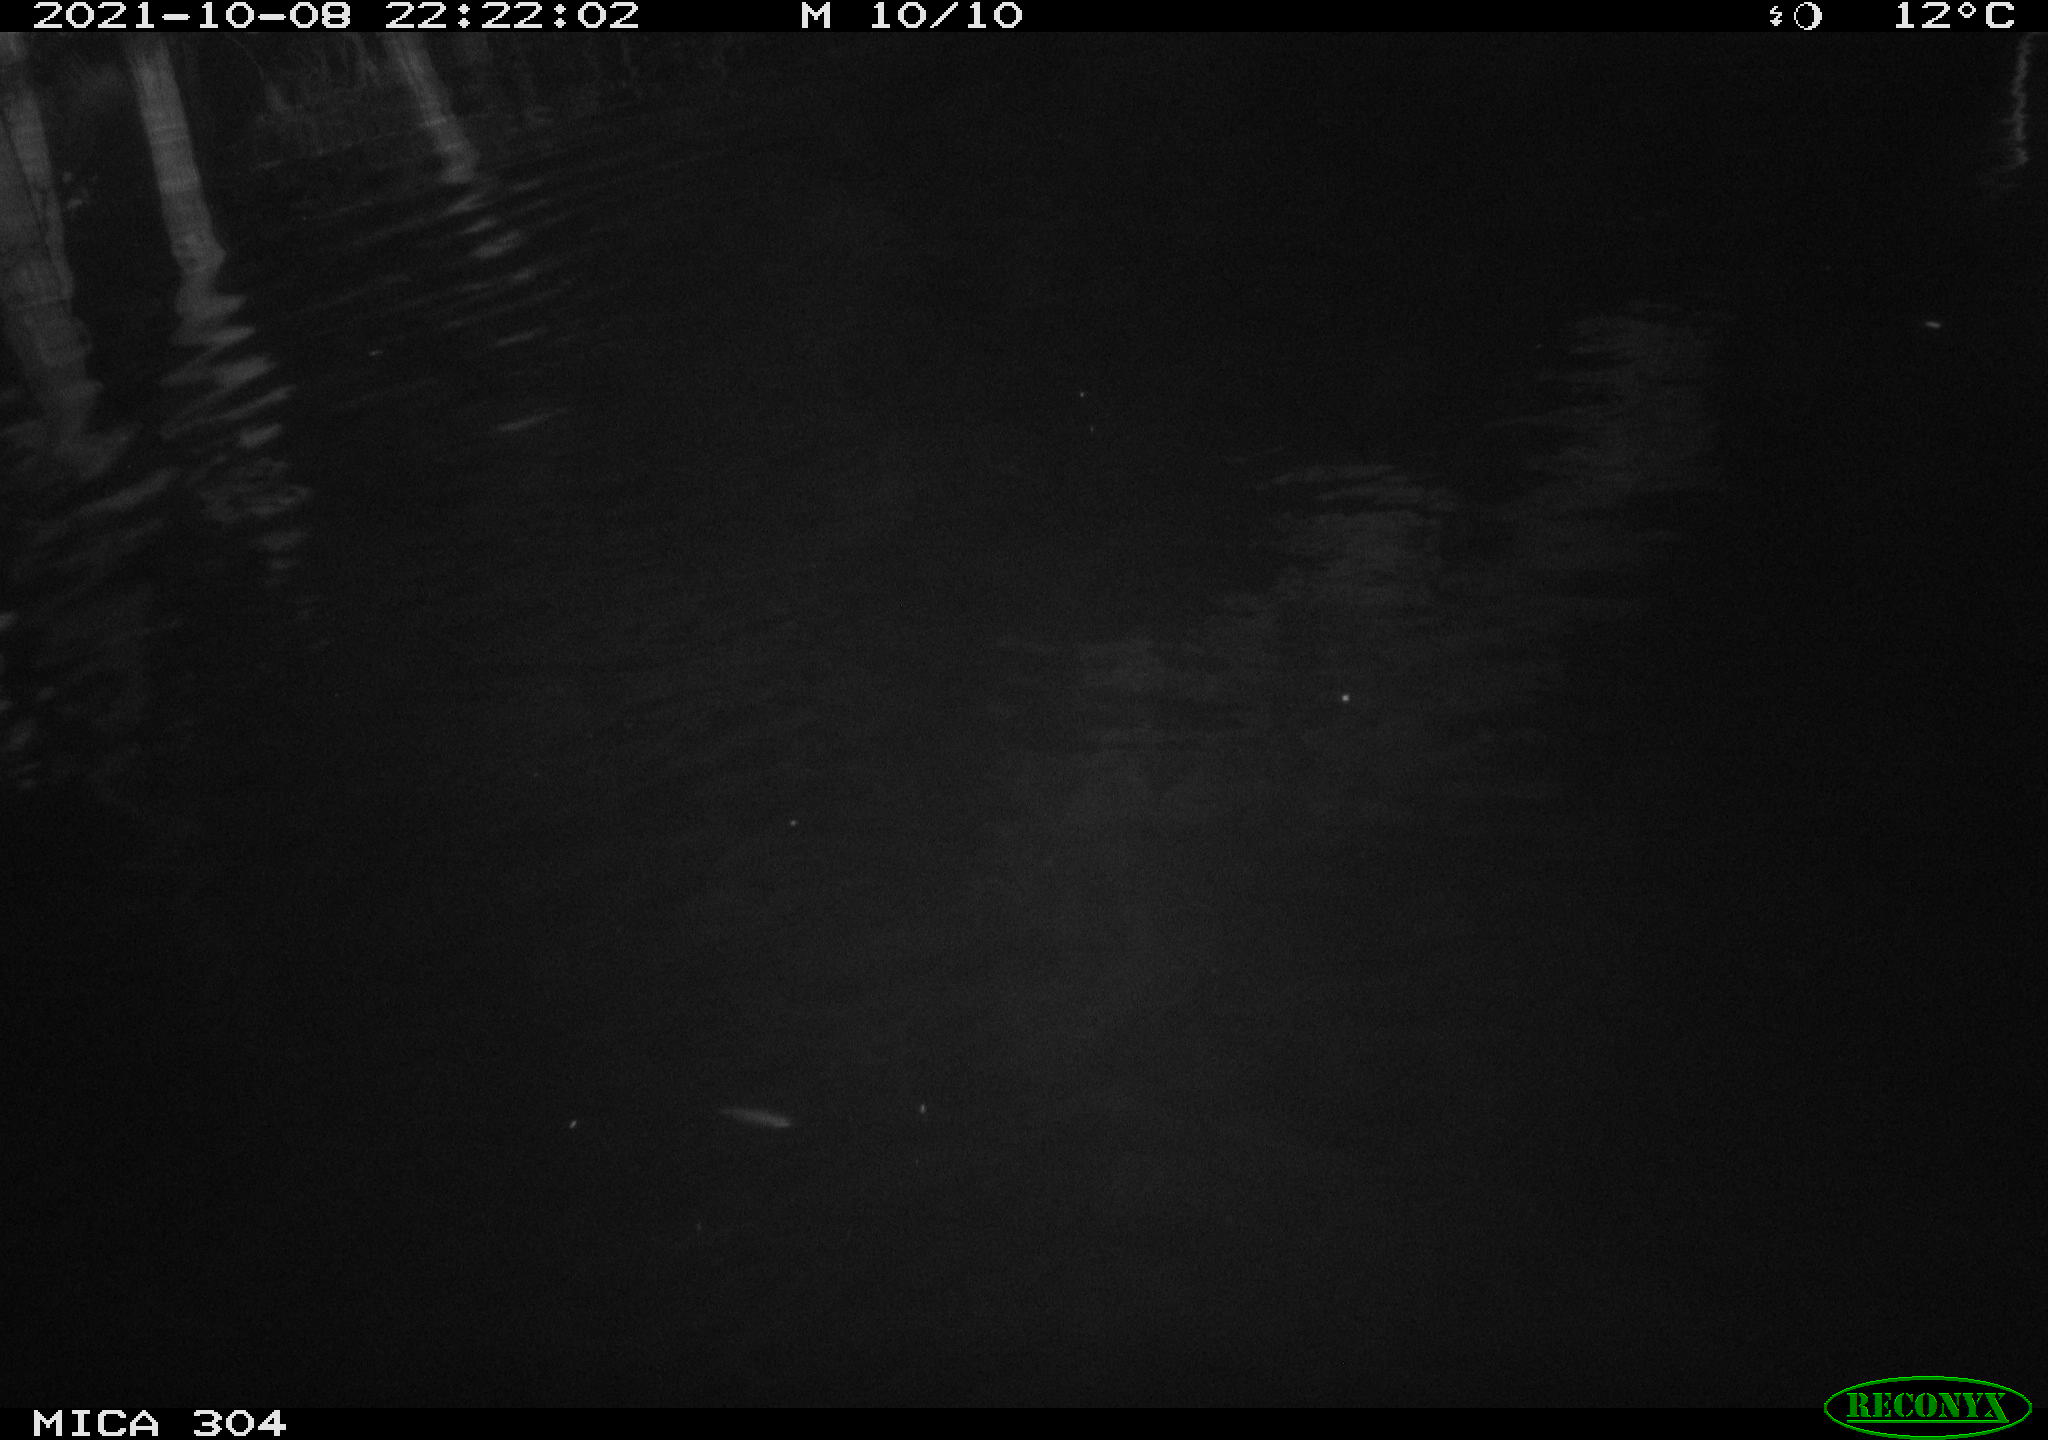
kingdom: Animalia
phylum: Chordata
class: Mammalia
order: Rodentia
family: Cricetidae
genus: Ondatra
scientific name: Ondatra zibethicus
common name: Muskrat
